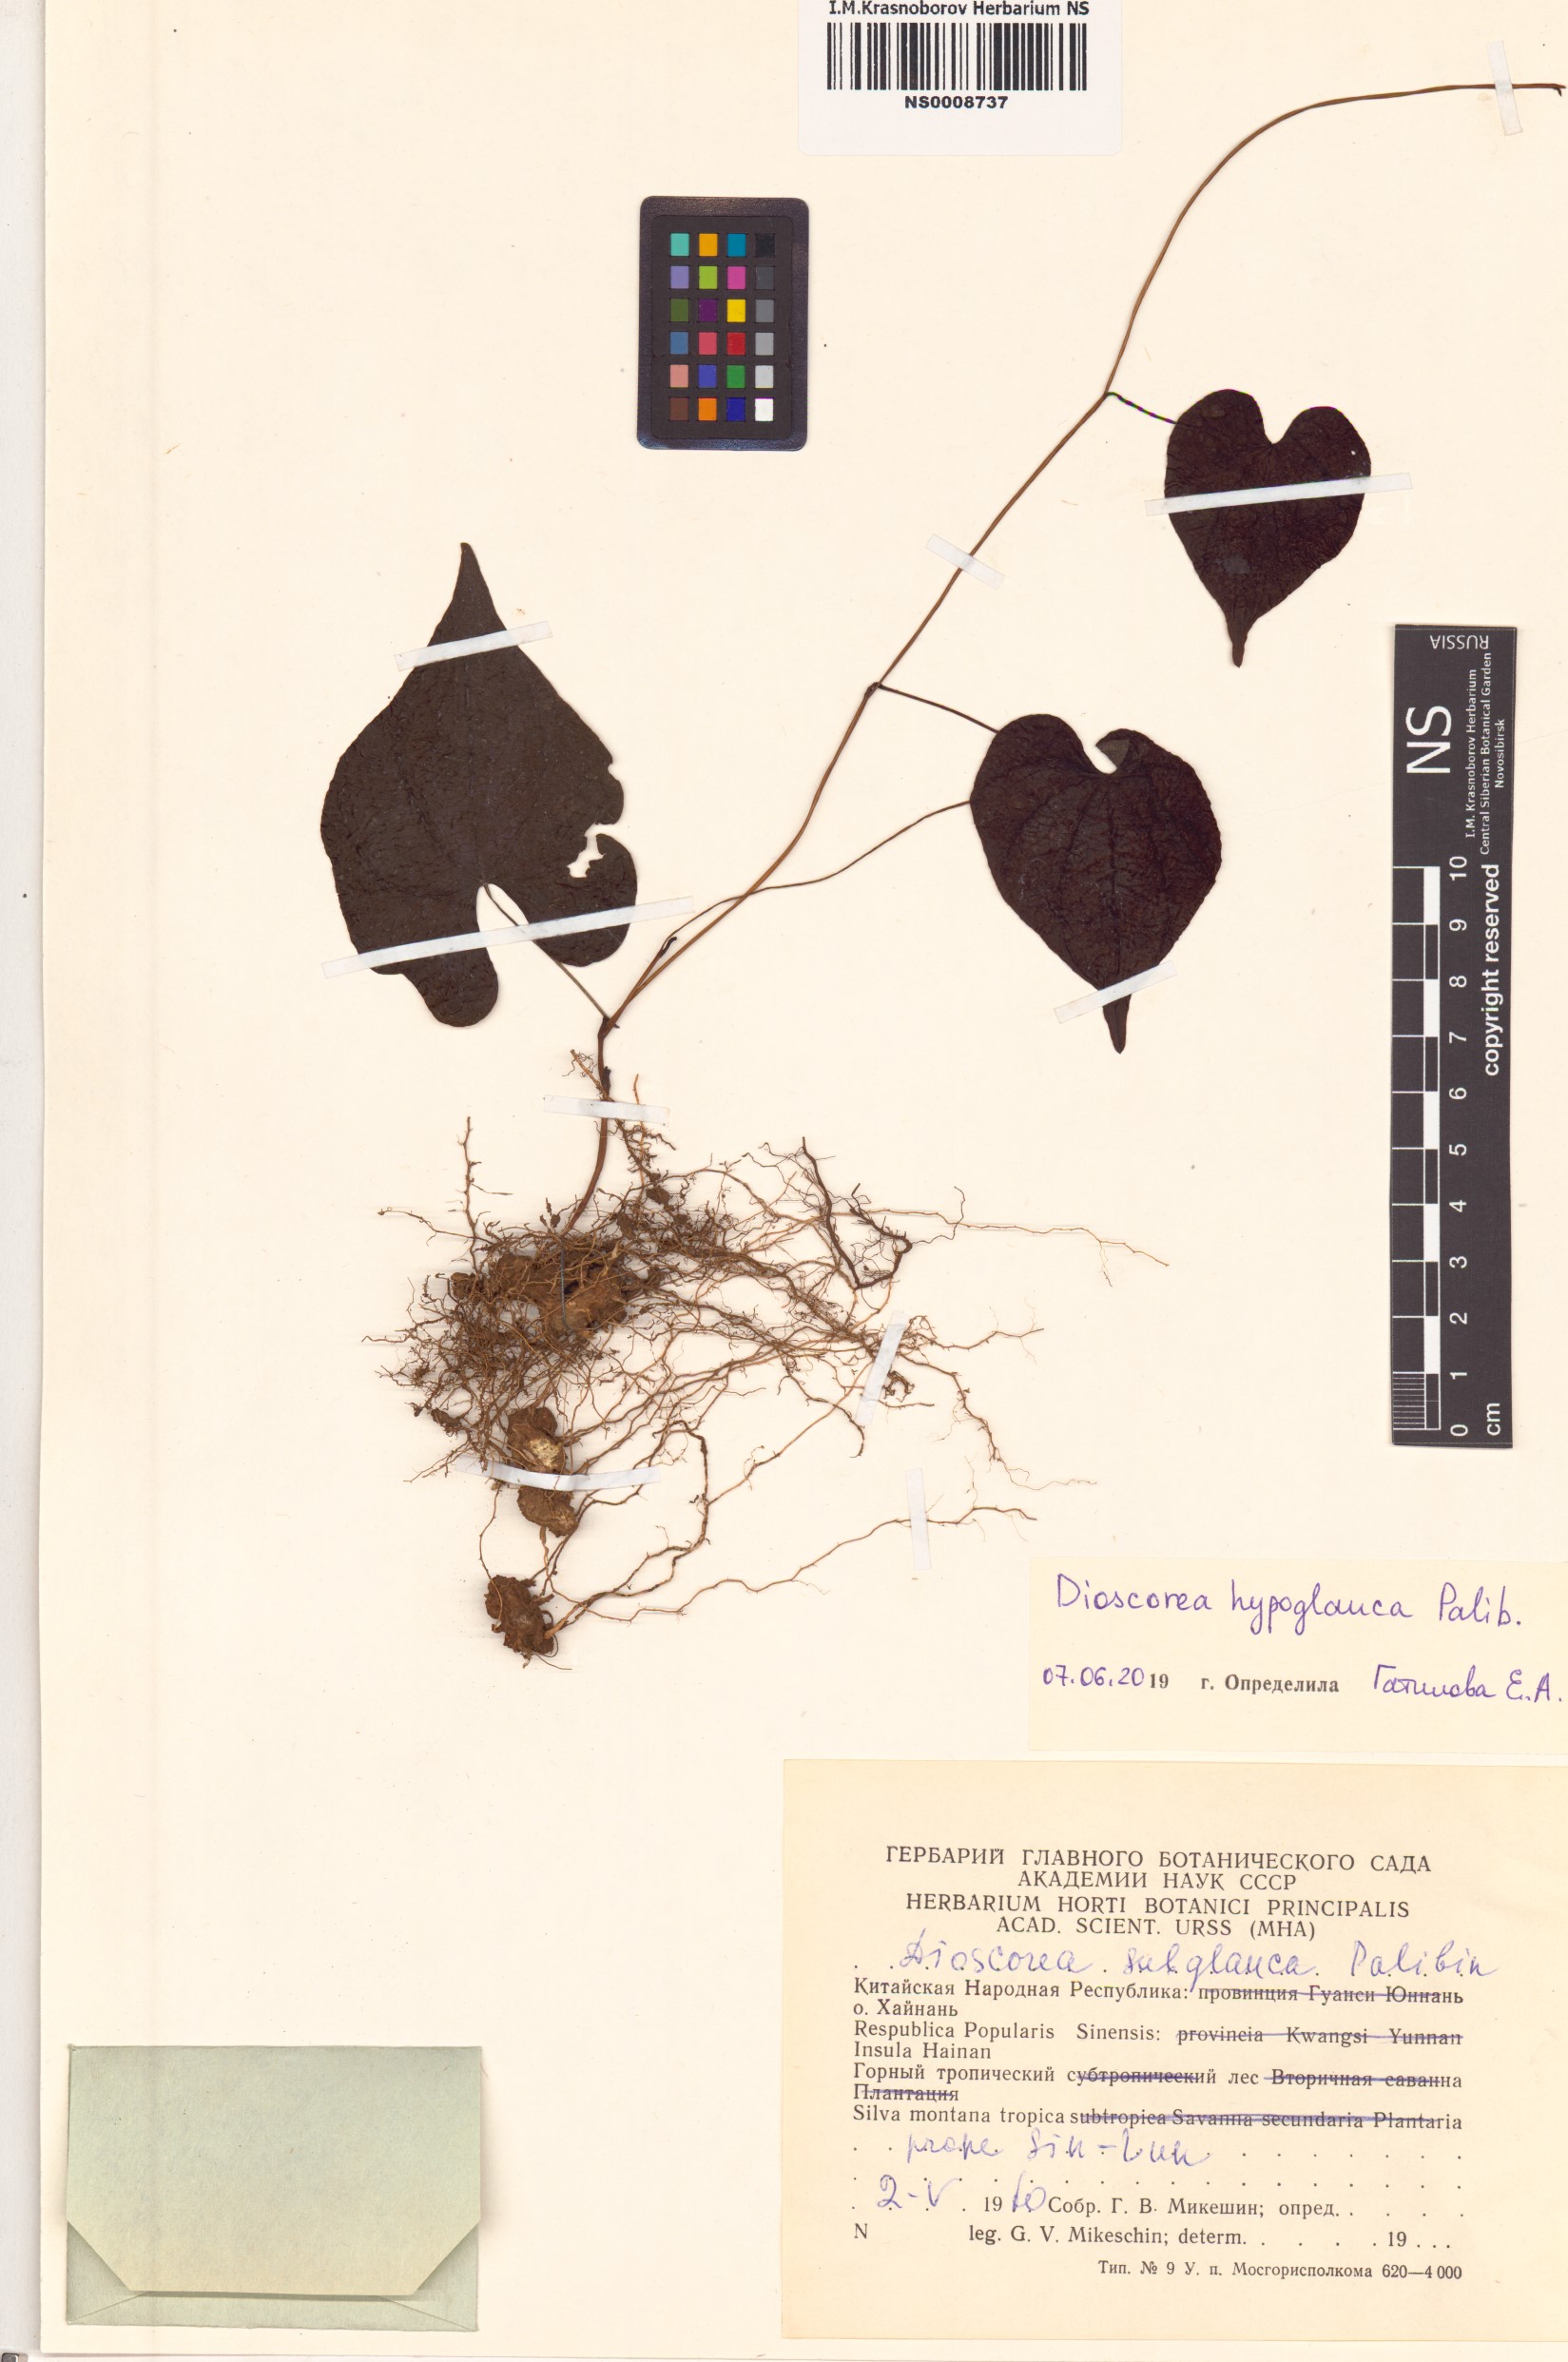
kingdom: Plantae
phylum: Tracheophyta
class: Liliopsida
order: Dioscoreales
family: Dioscoreaceae
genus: Dioscorea
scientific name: Dioscorea collettii
